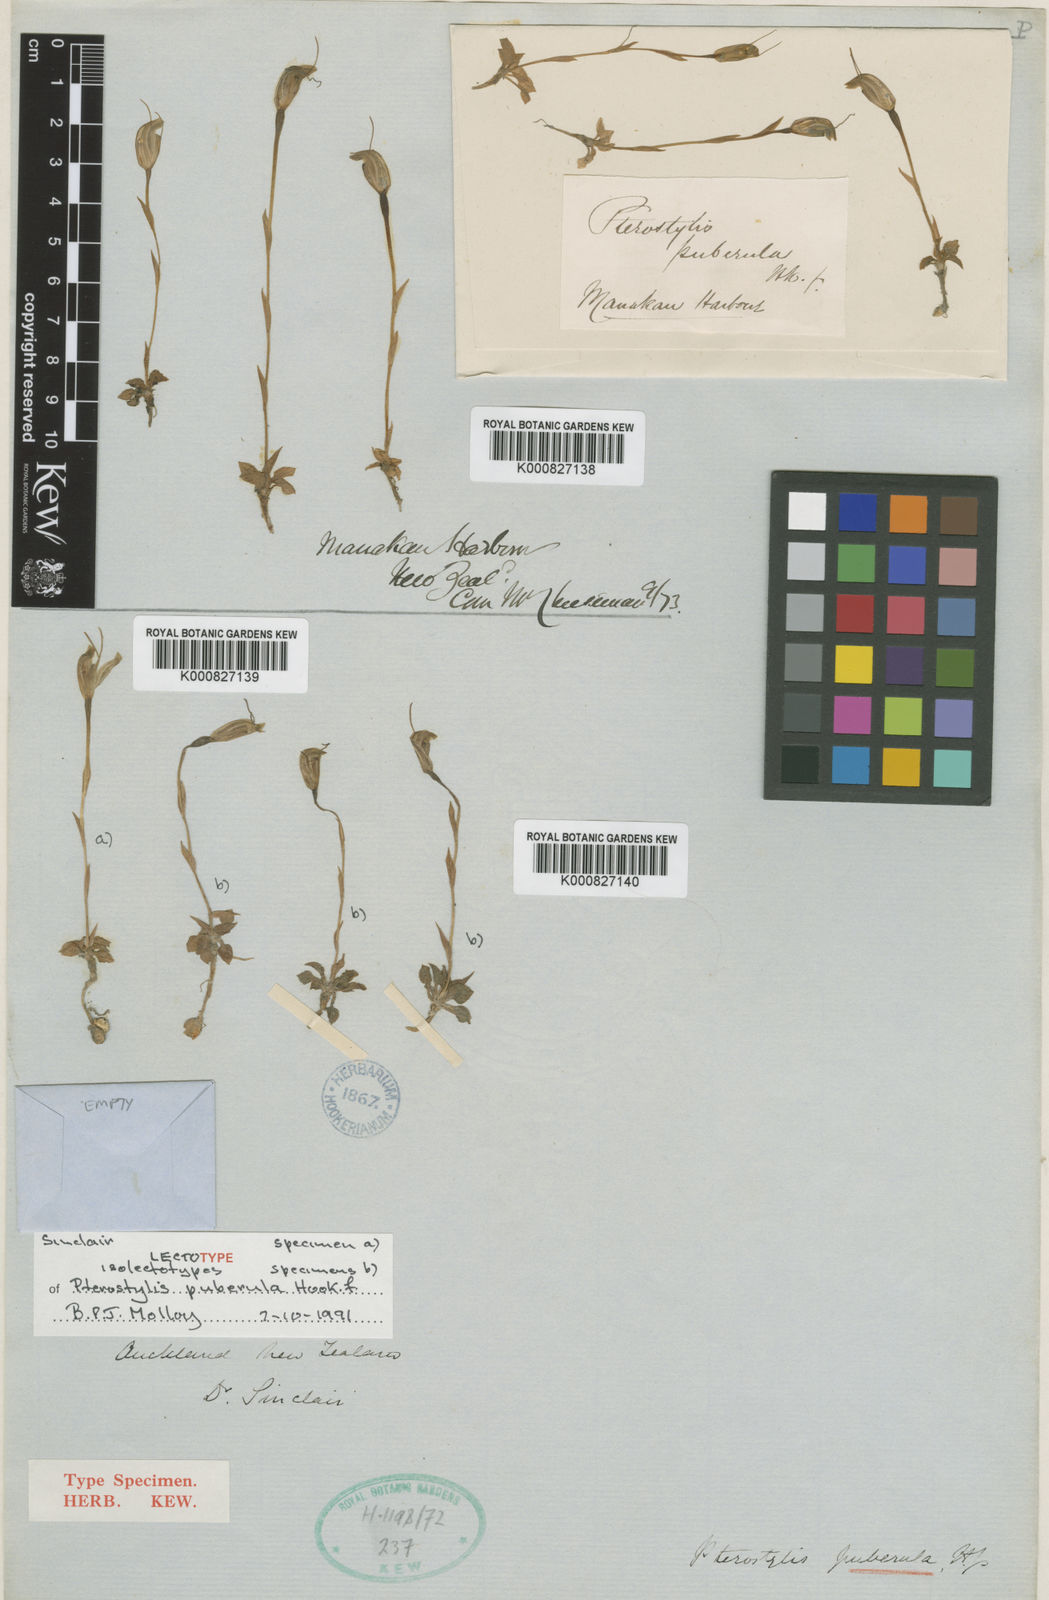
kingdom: Plantae
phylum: Tracheophyta
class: Liliopsida
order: Asparagales
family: Orchidaceae
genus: Pterostylis
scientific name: Pterostylis puberula
